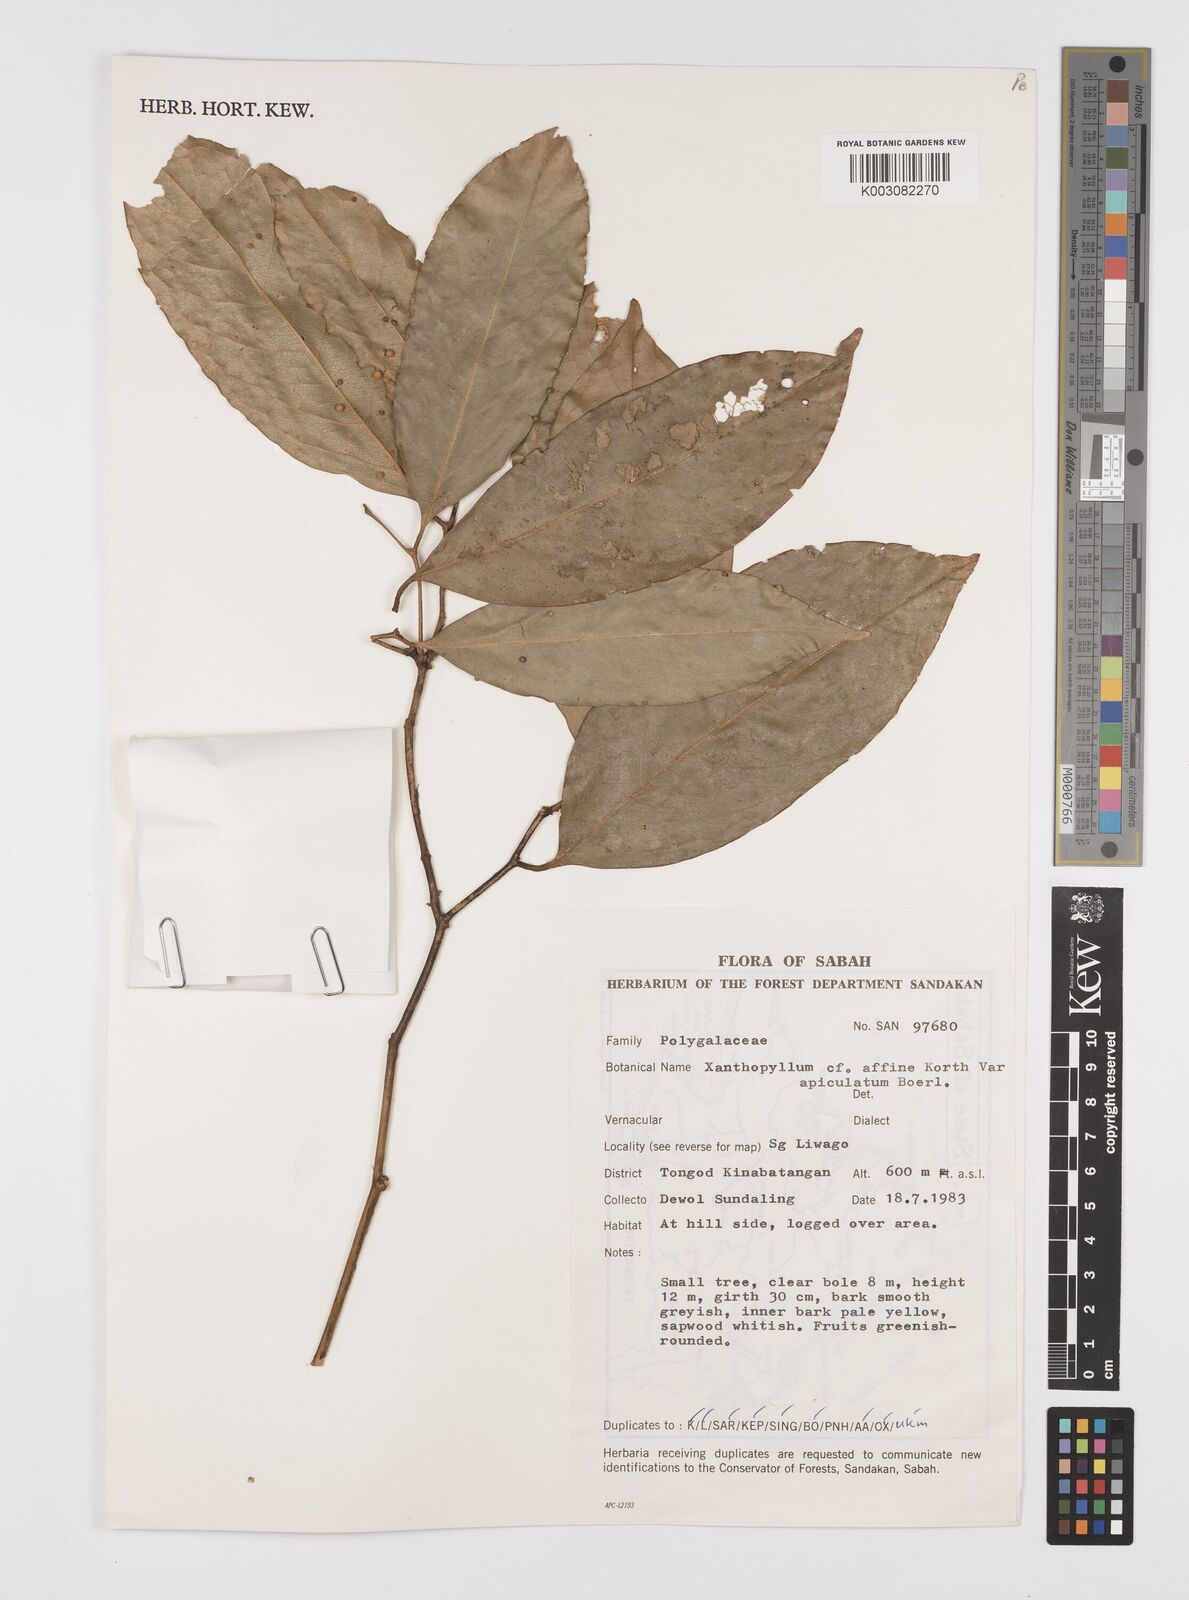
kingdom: Plantae
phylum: Tracheophyta
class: Magnoliopsida
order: Fabales
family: Polygalaceae
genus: Xanthophyllum
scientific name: Xanthophyllum flavescens
